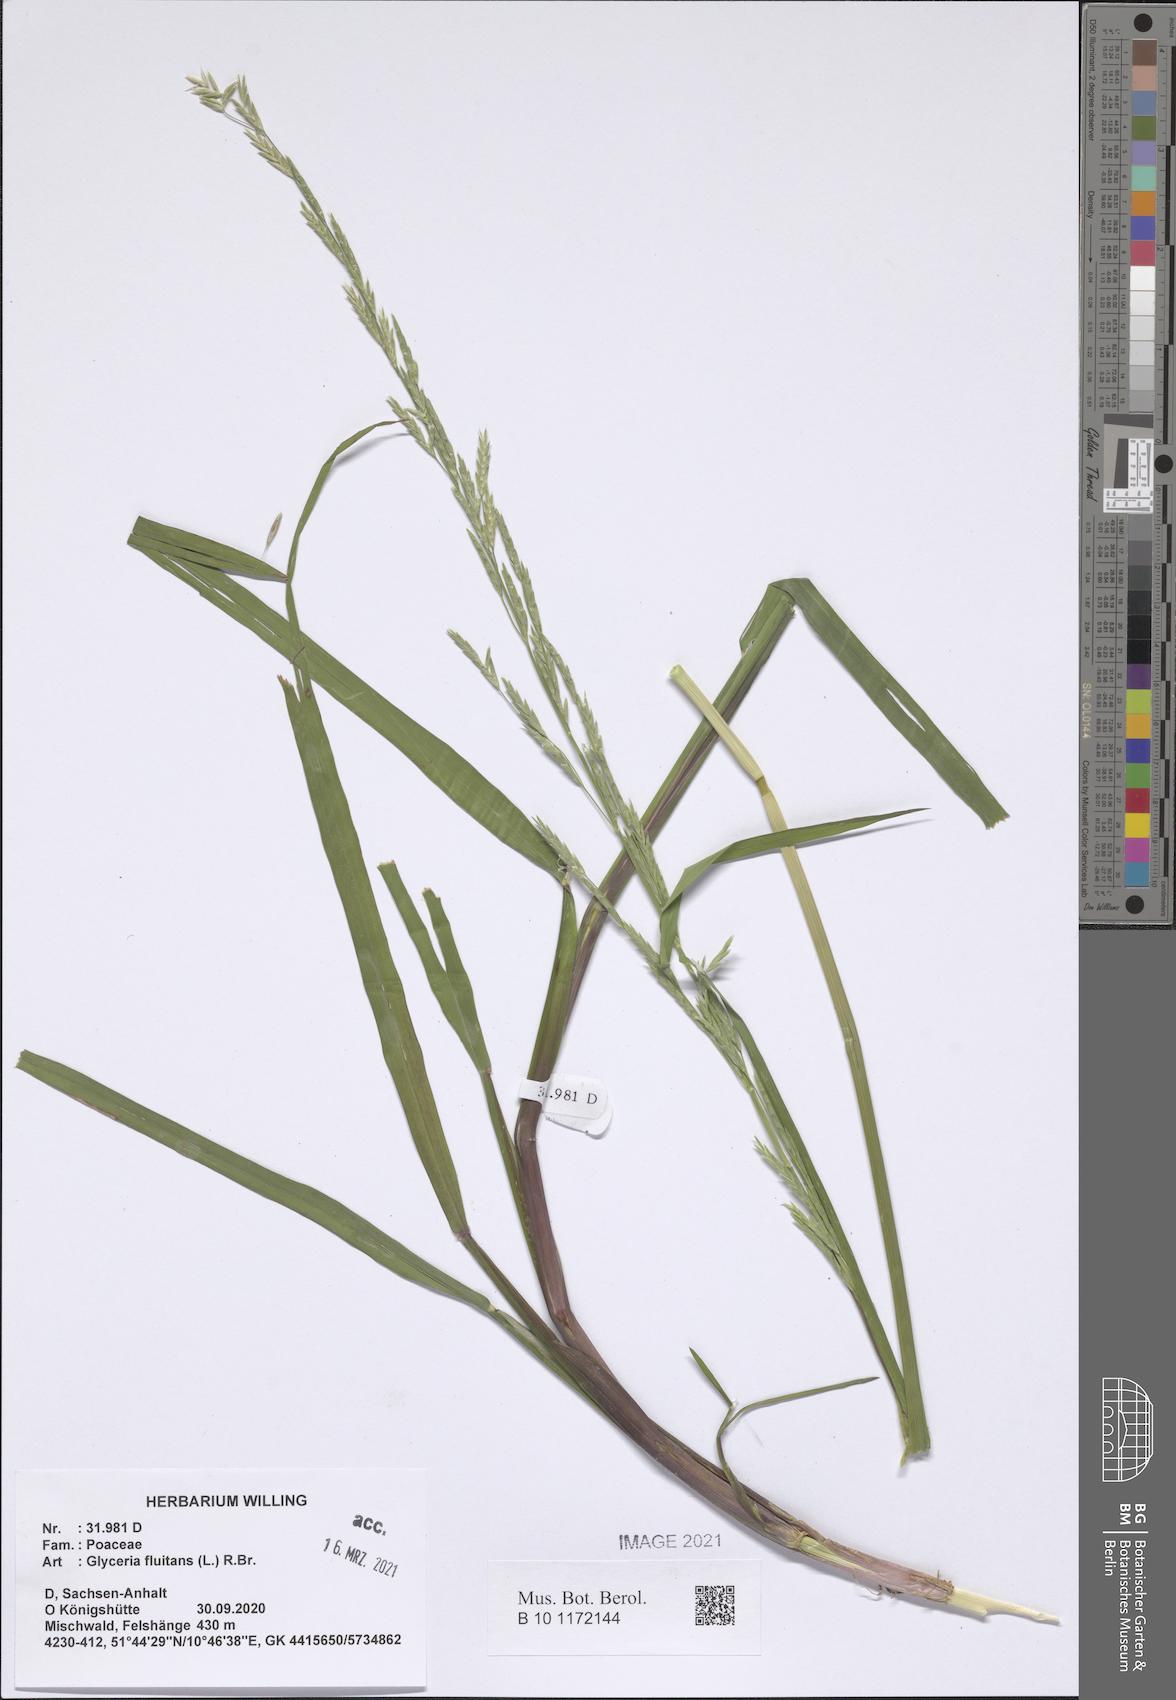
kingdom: Plantae
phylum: Tracheophyta
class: Liliopsida
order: Poales
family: Poaceae
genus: Glyceria
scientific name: Glyceria fluitans
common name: Floating sweet-grass
